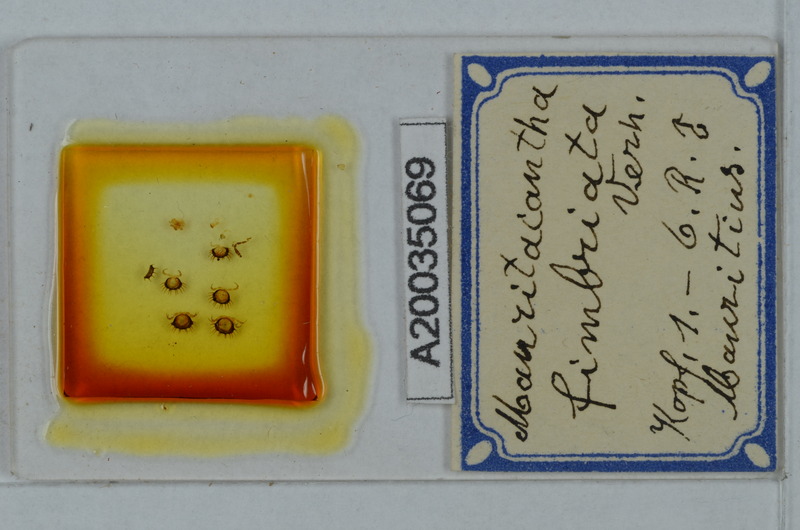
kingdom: Animalia
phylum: Arthropoda
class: Diplopoda
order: Polydesmida
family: Trichopolydesmidae
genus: Mauritacantha
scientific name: Mauritacantha fimbriata
